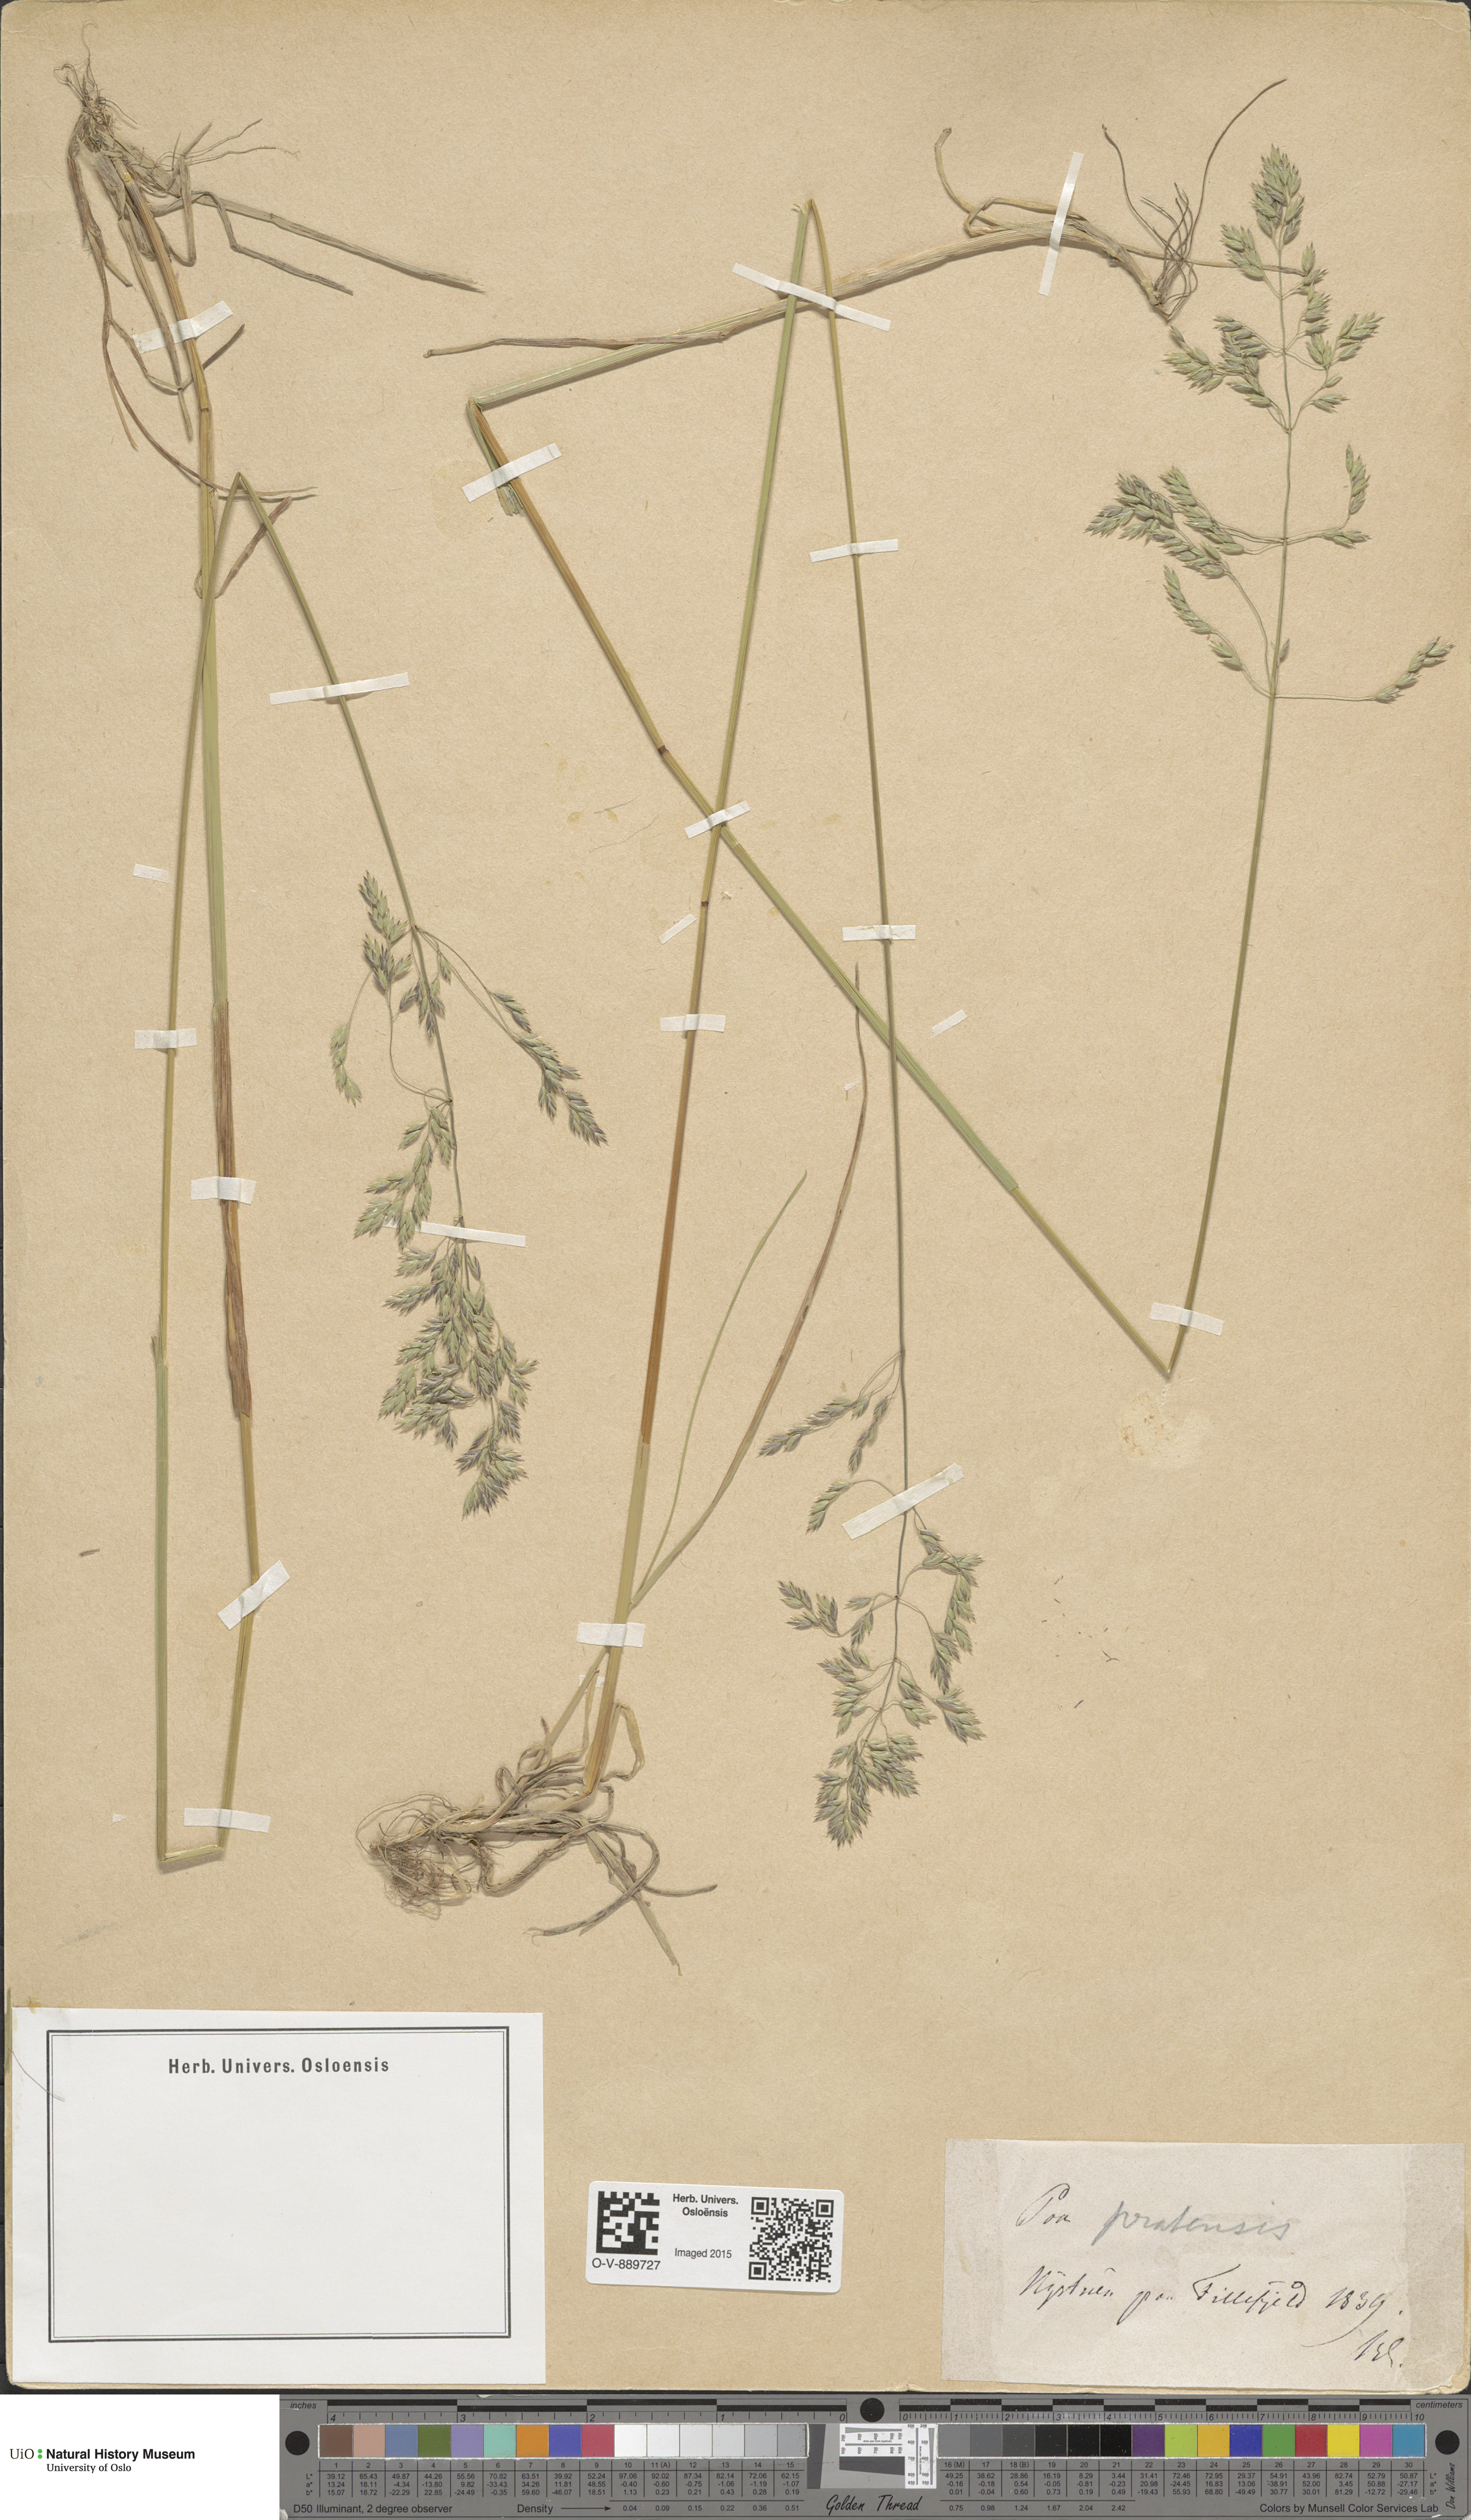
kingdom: Plantae
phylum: Tracheophyta
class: Liliopsida
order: Poales
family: Poaceae
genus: Poa
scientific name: Poa pratensis
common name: Kentucky bluegrass
